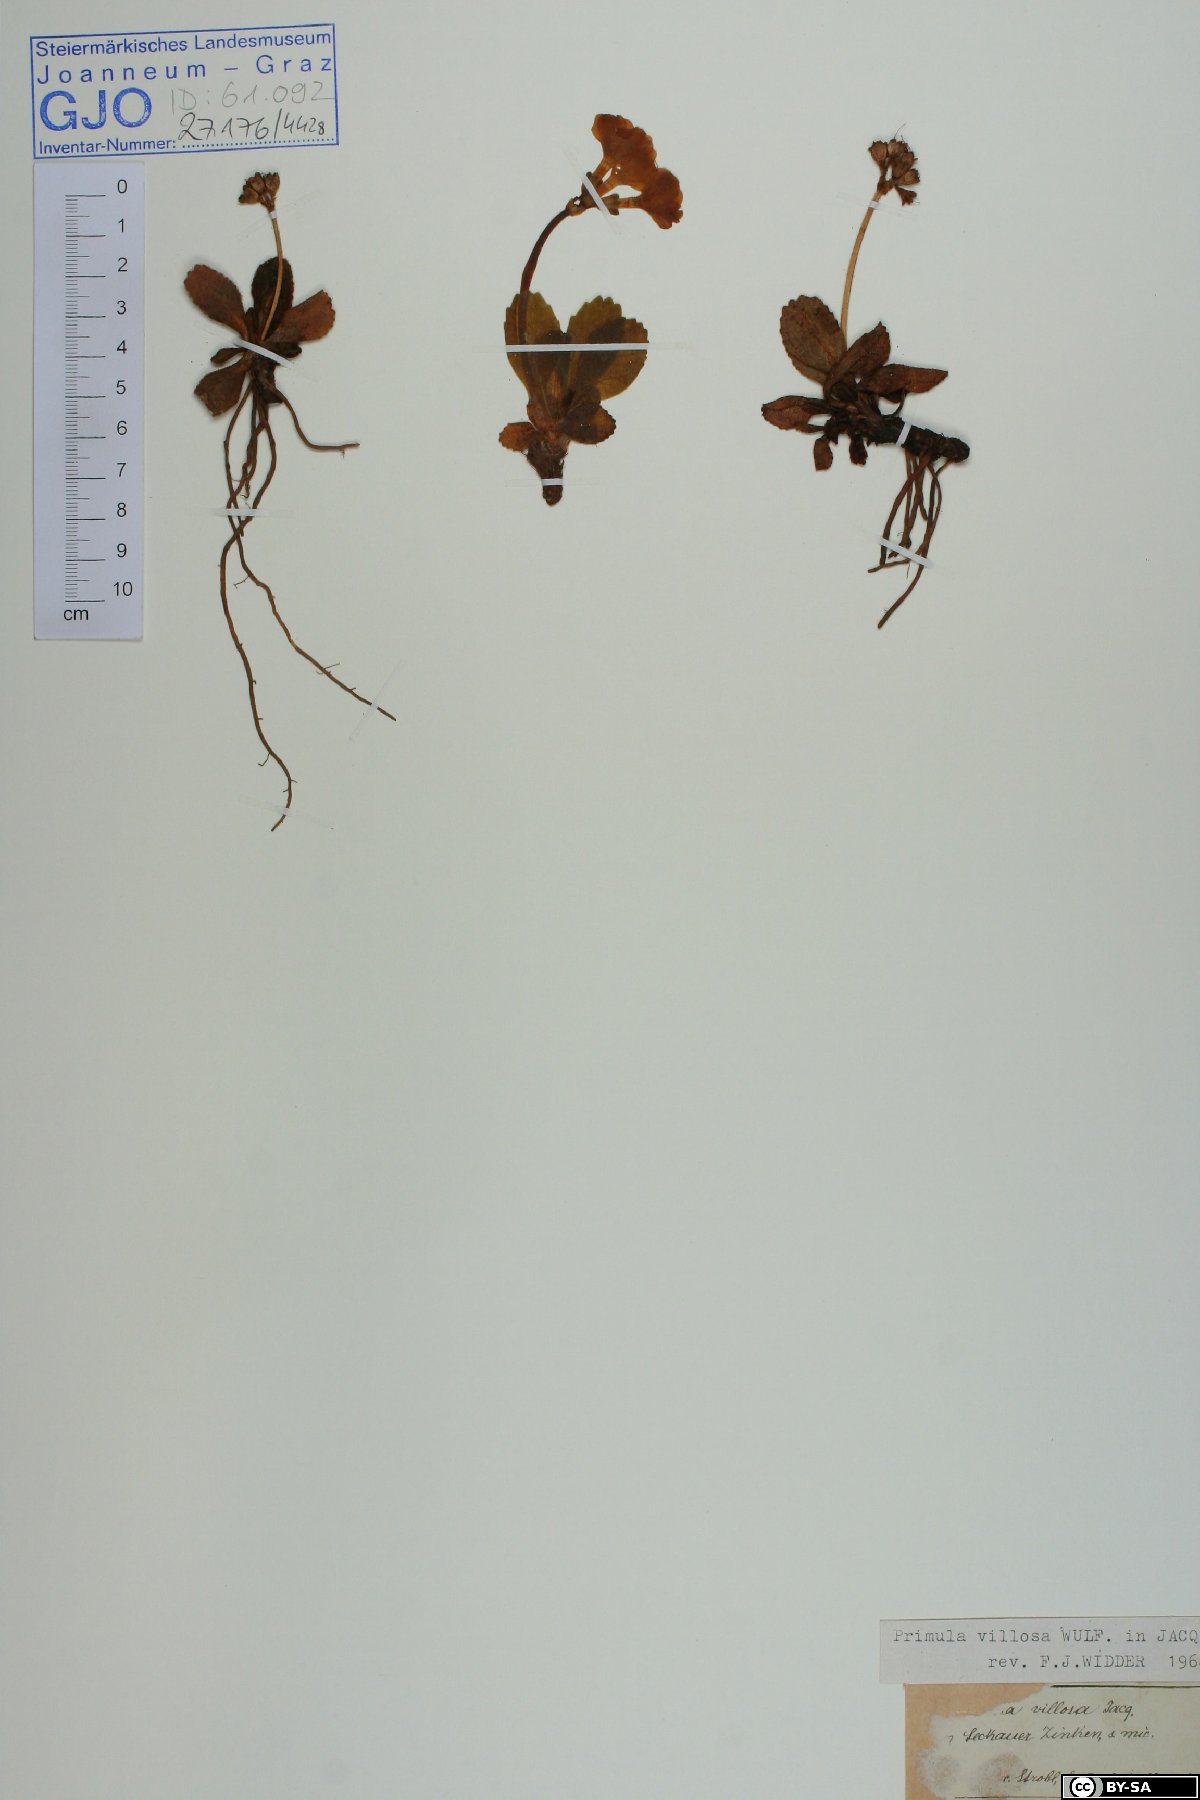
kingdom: Plantae
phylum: Tracheophyta
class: Magnoliopsida
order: Ericales
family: Primulaceae
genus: Primula
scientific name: Primula villosa
